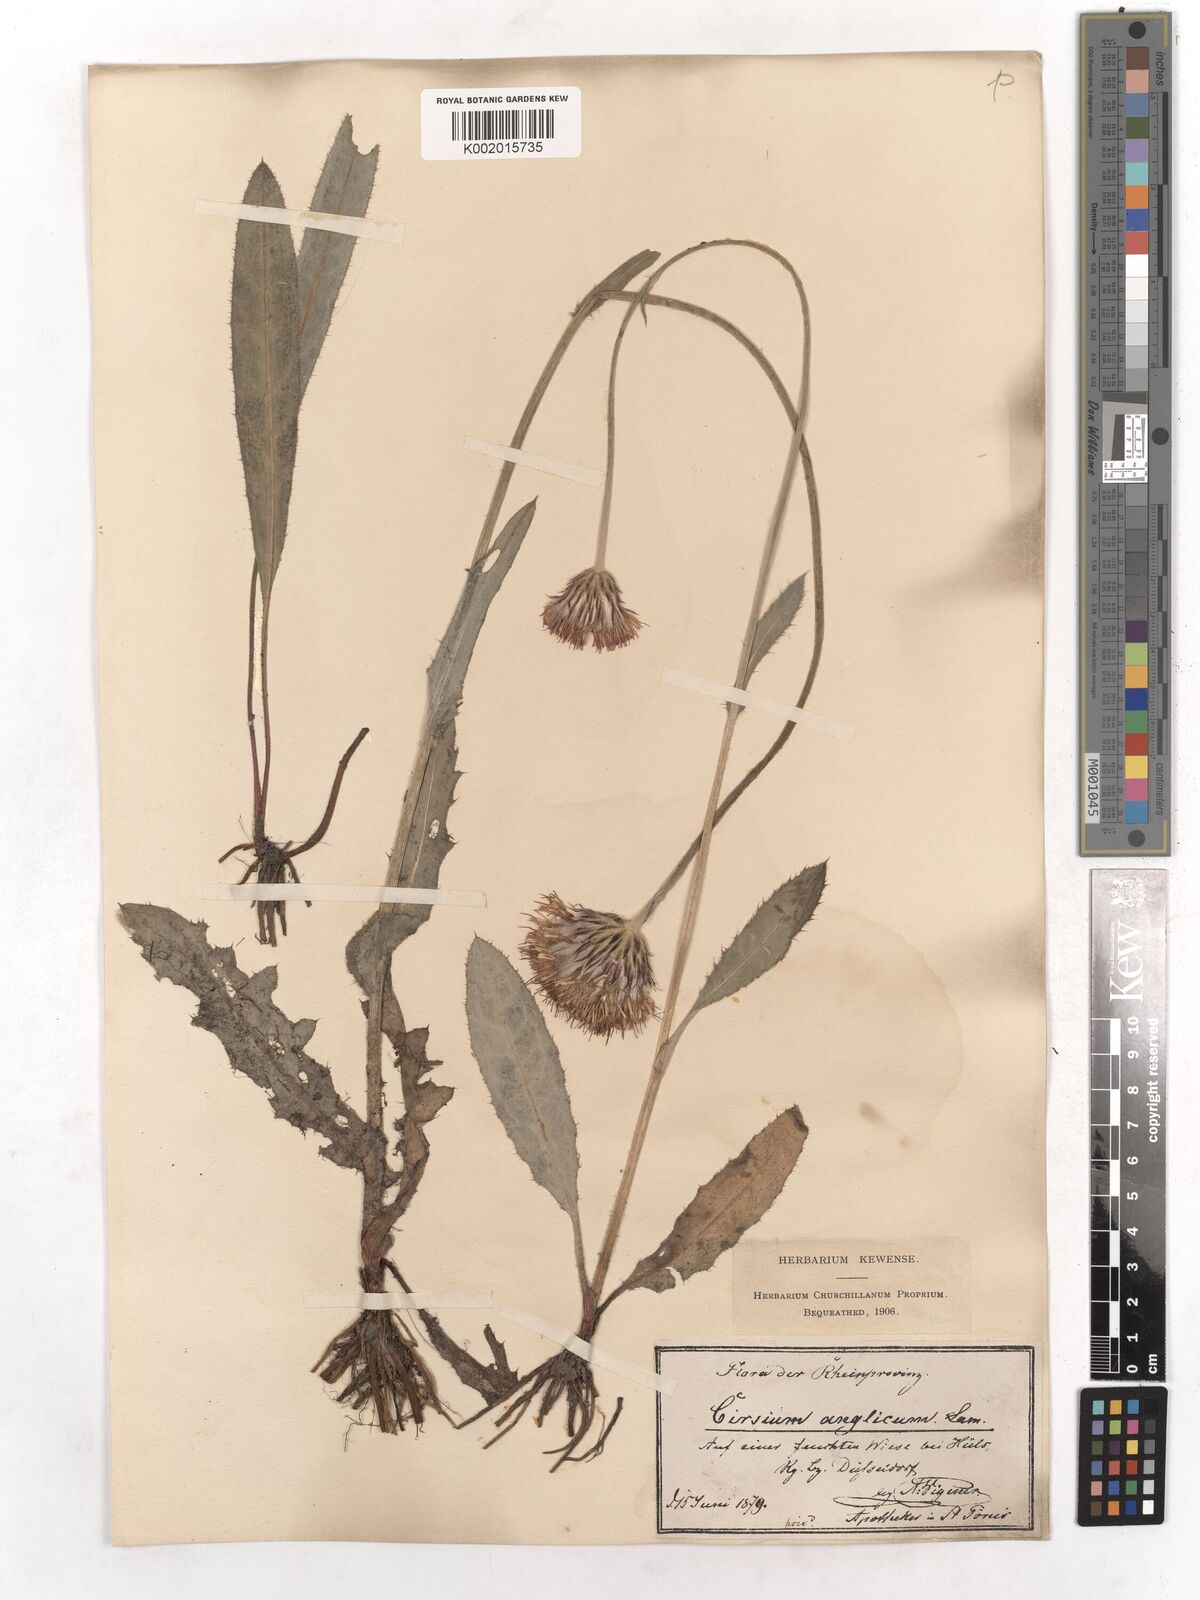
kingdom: Plantae
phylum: Tracheophyta
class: Magnoliopsida
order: Asterales
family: Asteraceae
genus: Cirsium
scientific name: Cirsium dissectum
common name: Meadow thistle
